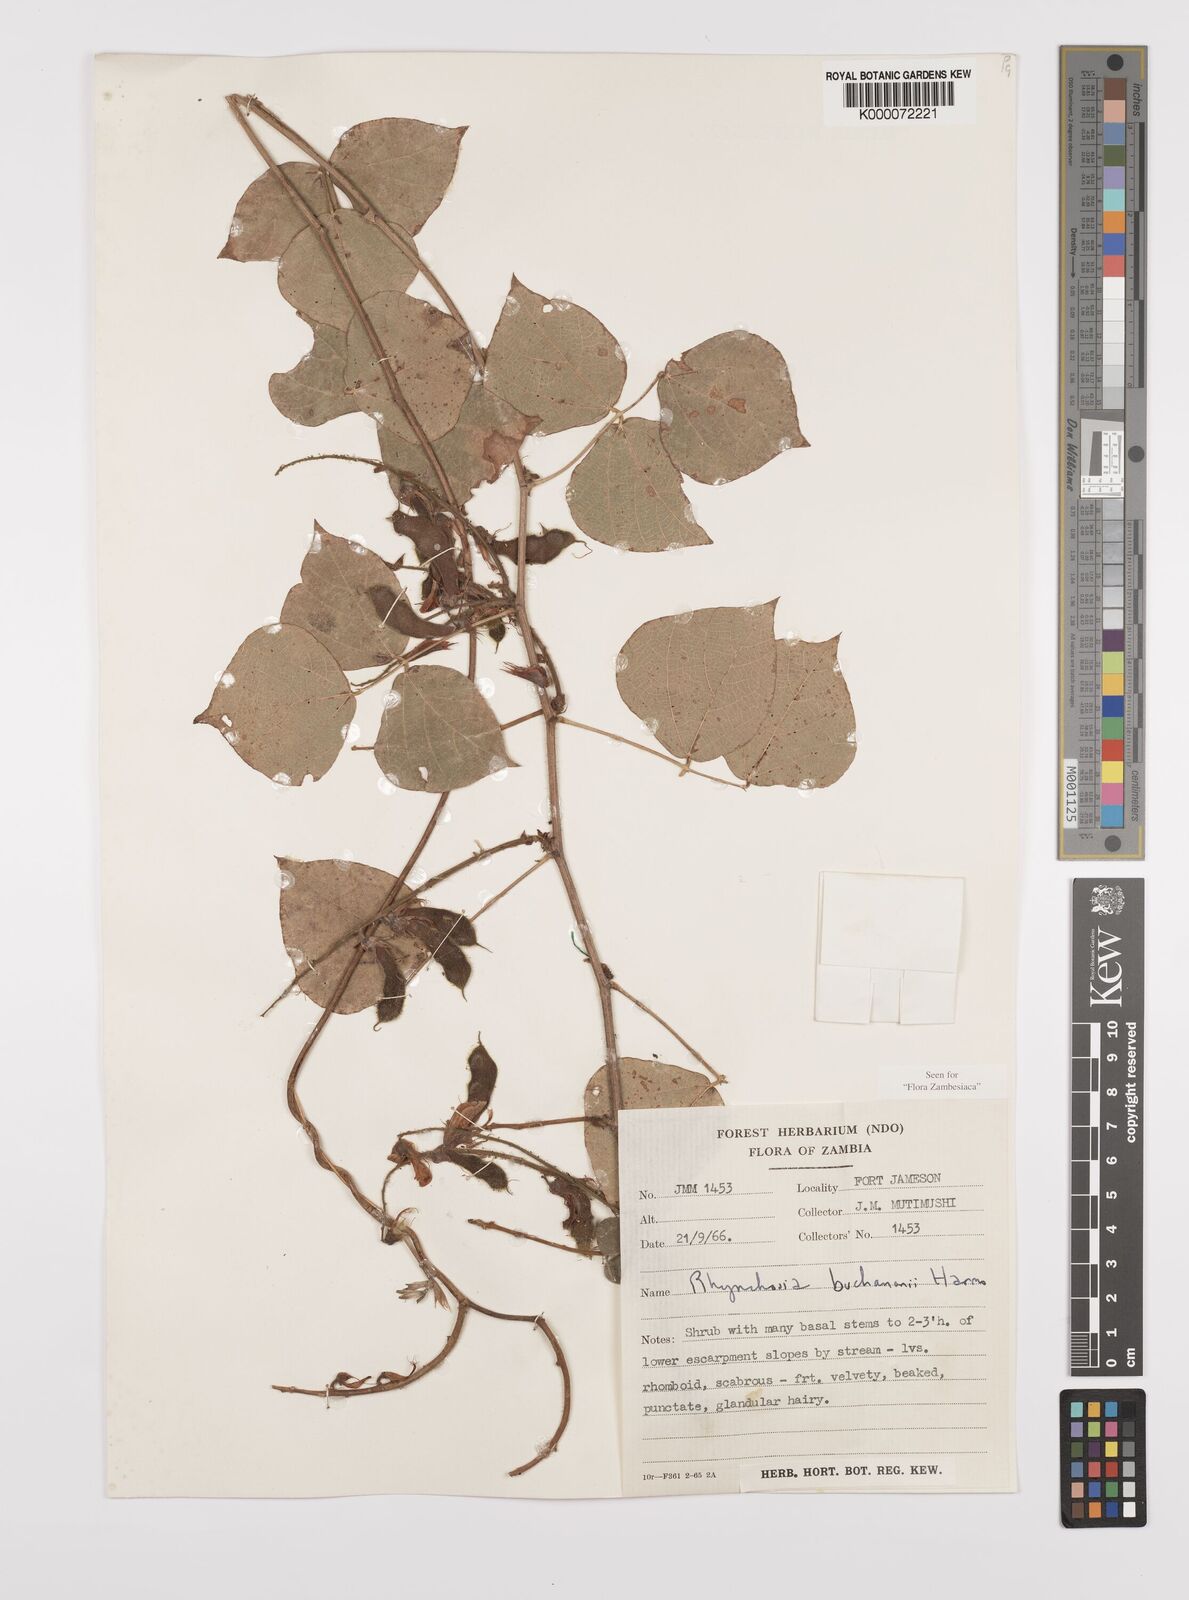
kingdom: Plantae
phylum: Tracheophyta
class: Magnoliopsida
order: Fabales
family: Fabaceae
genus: Rhynchosia
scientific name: Rhynchosia buchananii
